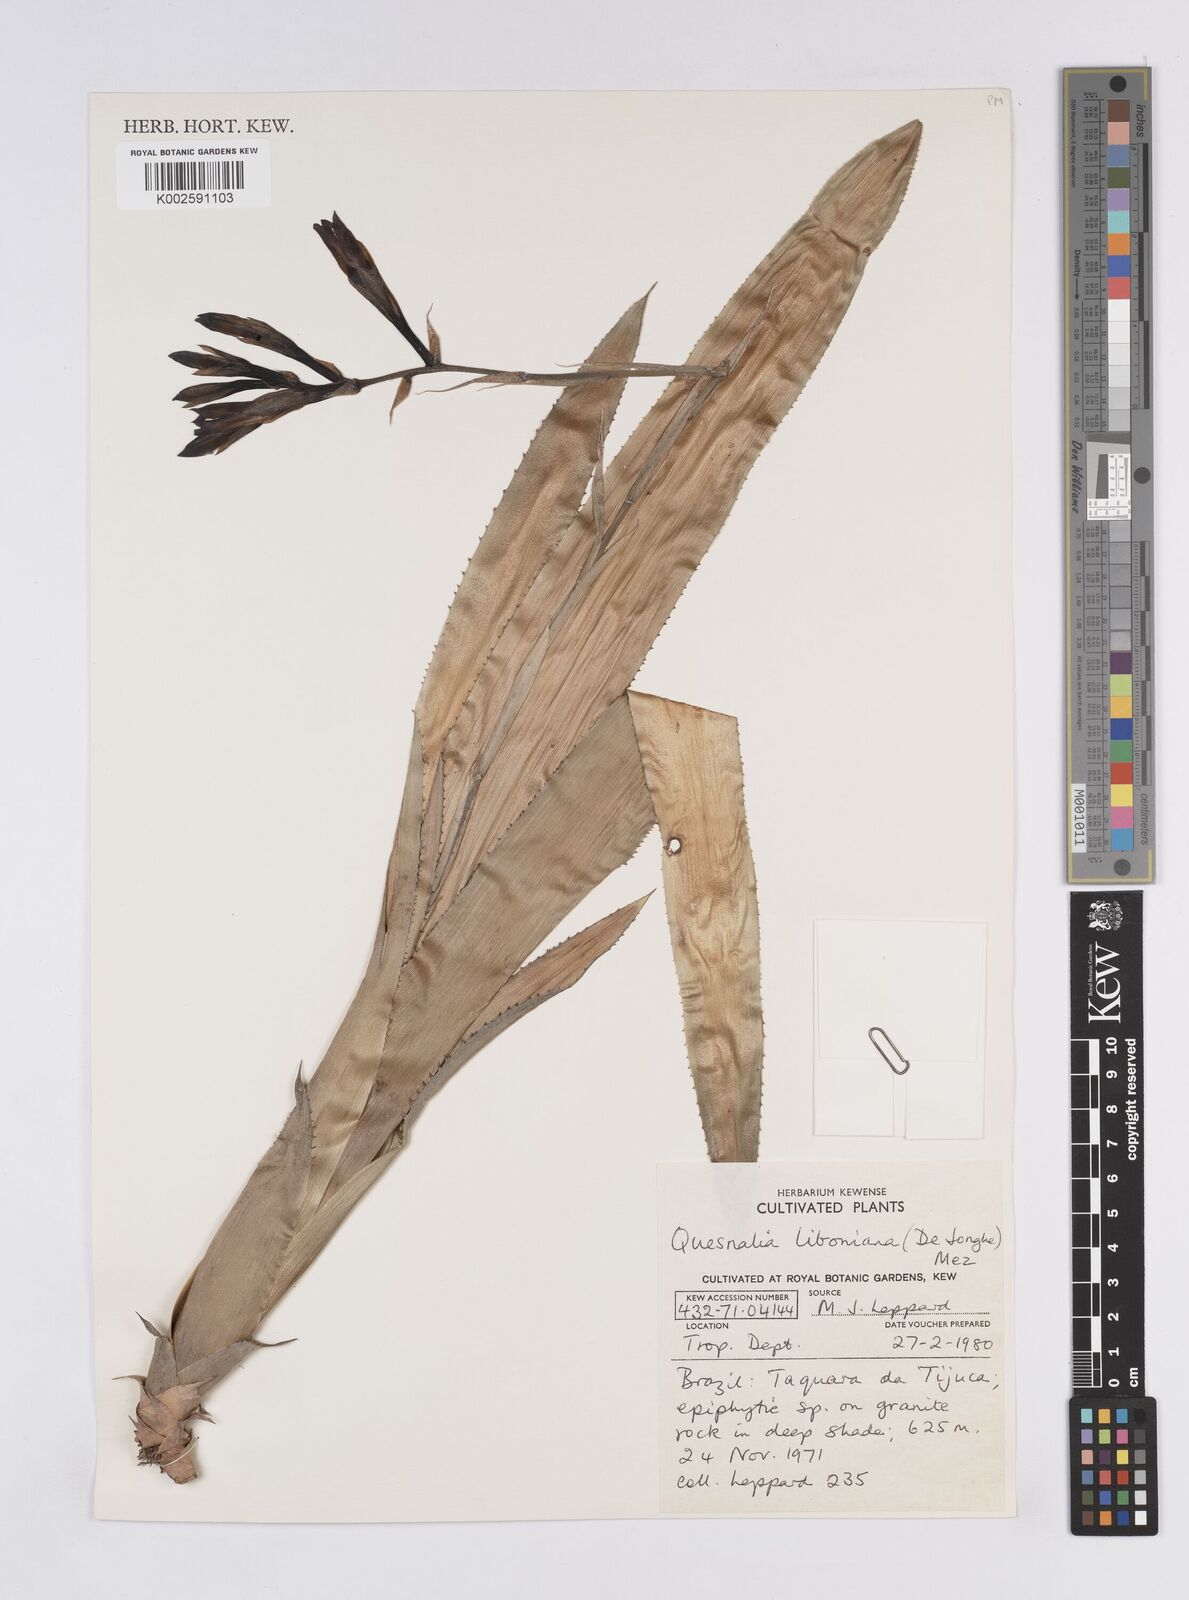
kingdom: Plantae
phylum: Tracheophyta
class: Liliopsida
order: Poales
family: Bromeliaceae
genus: Quesnelia
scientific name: Quesnelia liboniana
